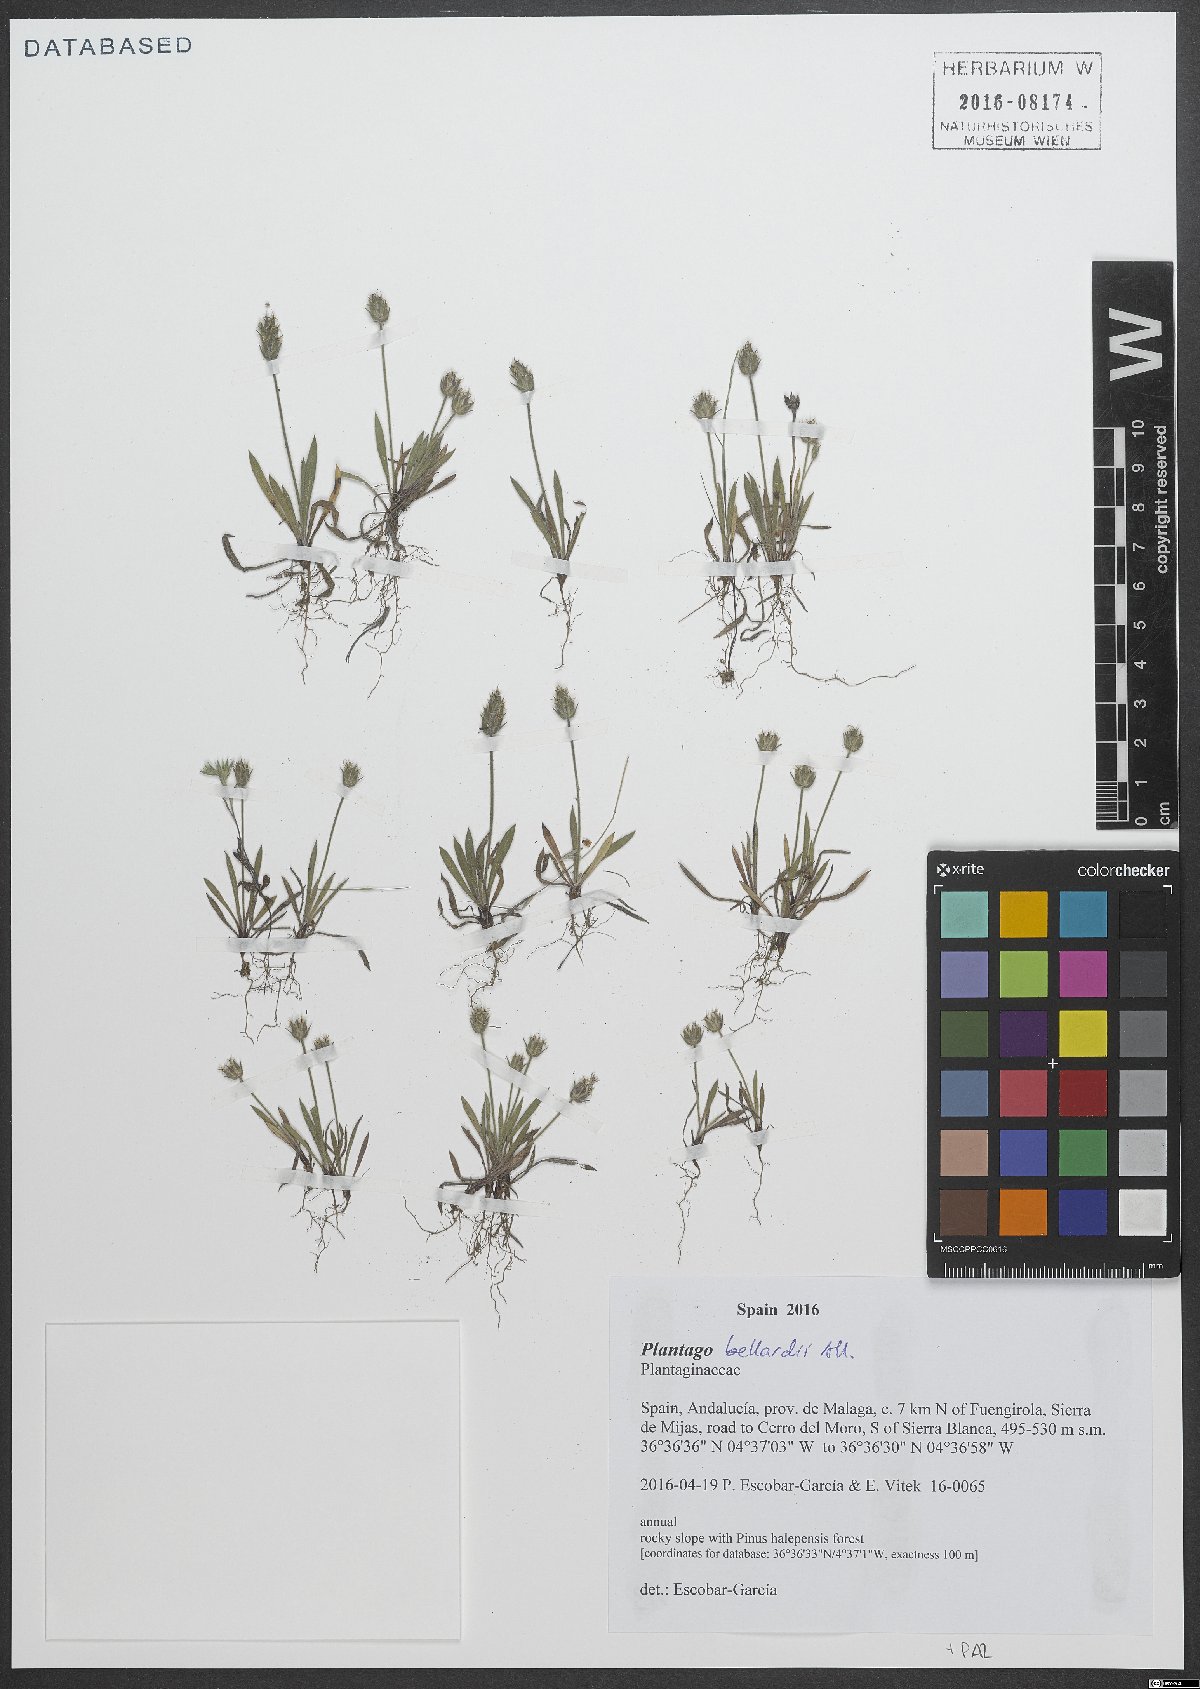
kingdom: Plantae
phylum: Tracheophyta
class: Magnoliopsida
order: Lamiales
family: Plantaginaceae
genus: Plantago
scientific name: Plantago bellardii
